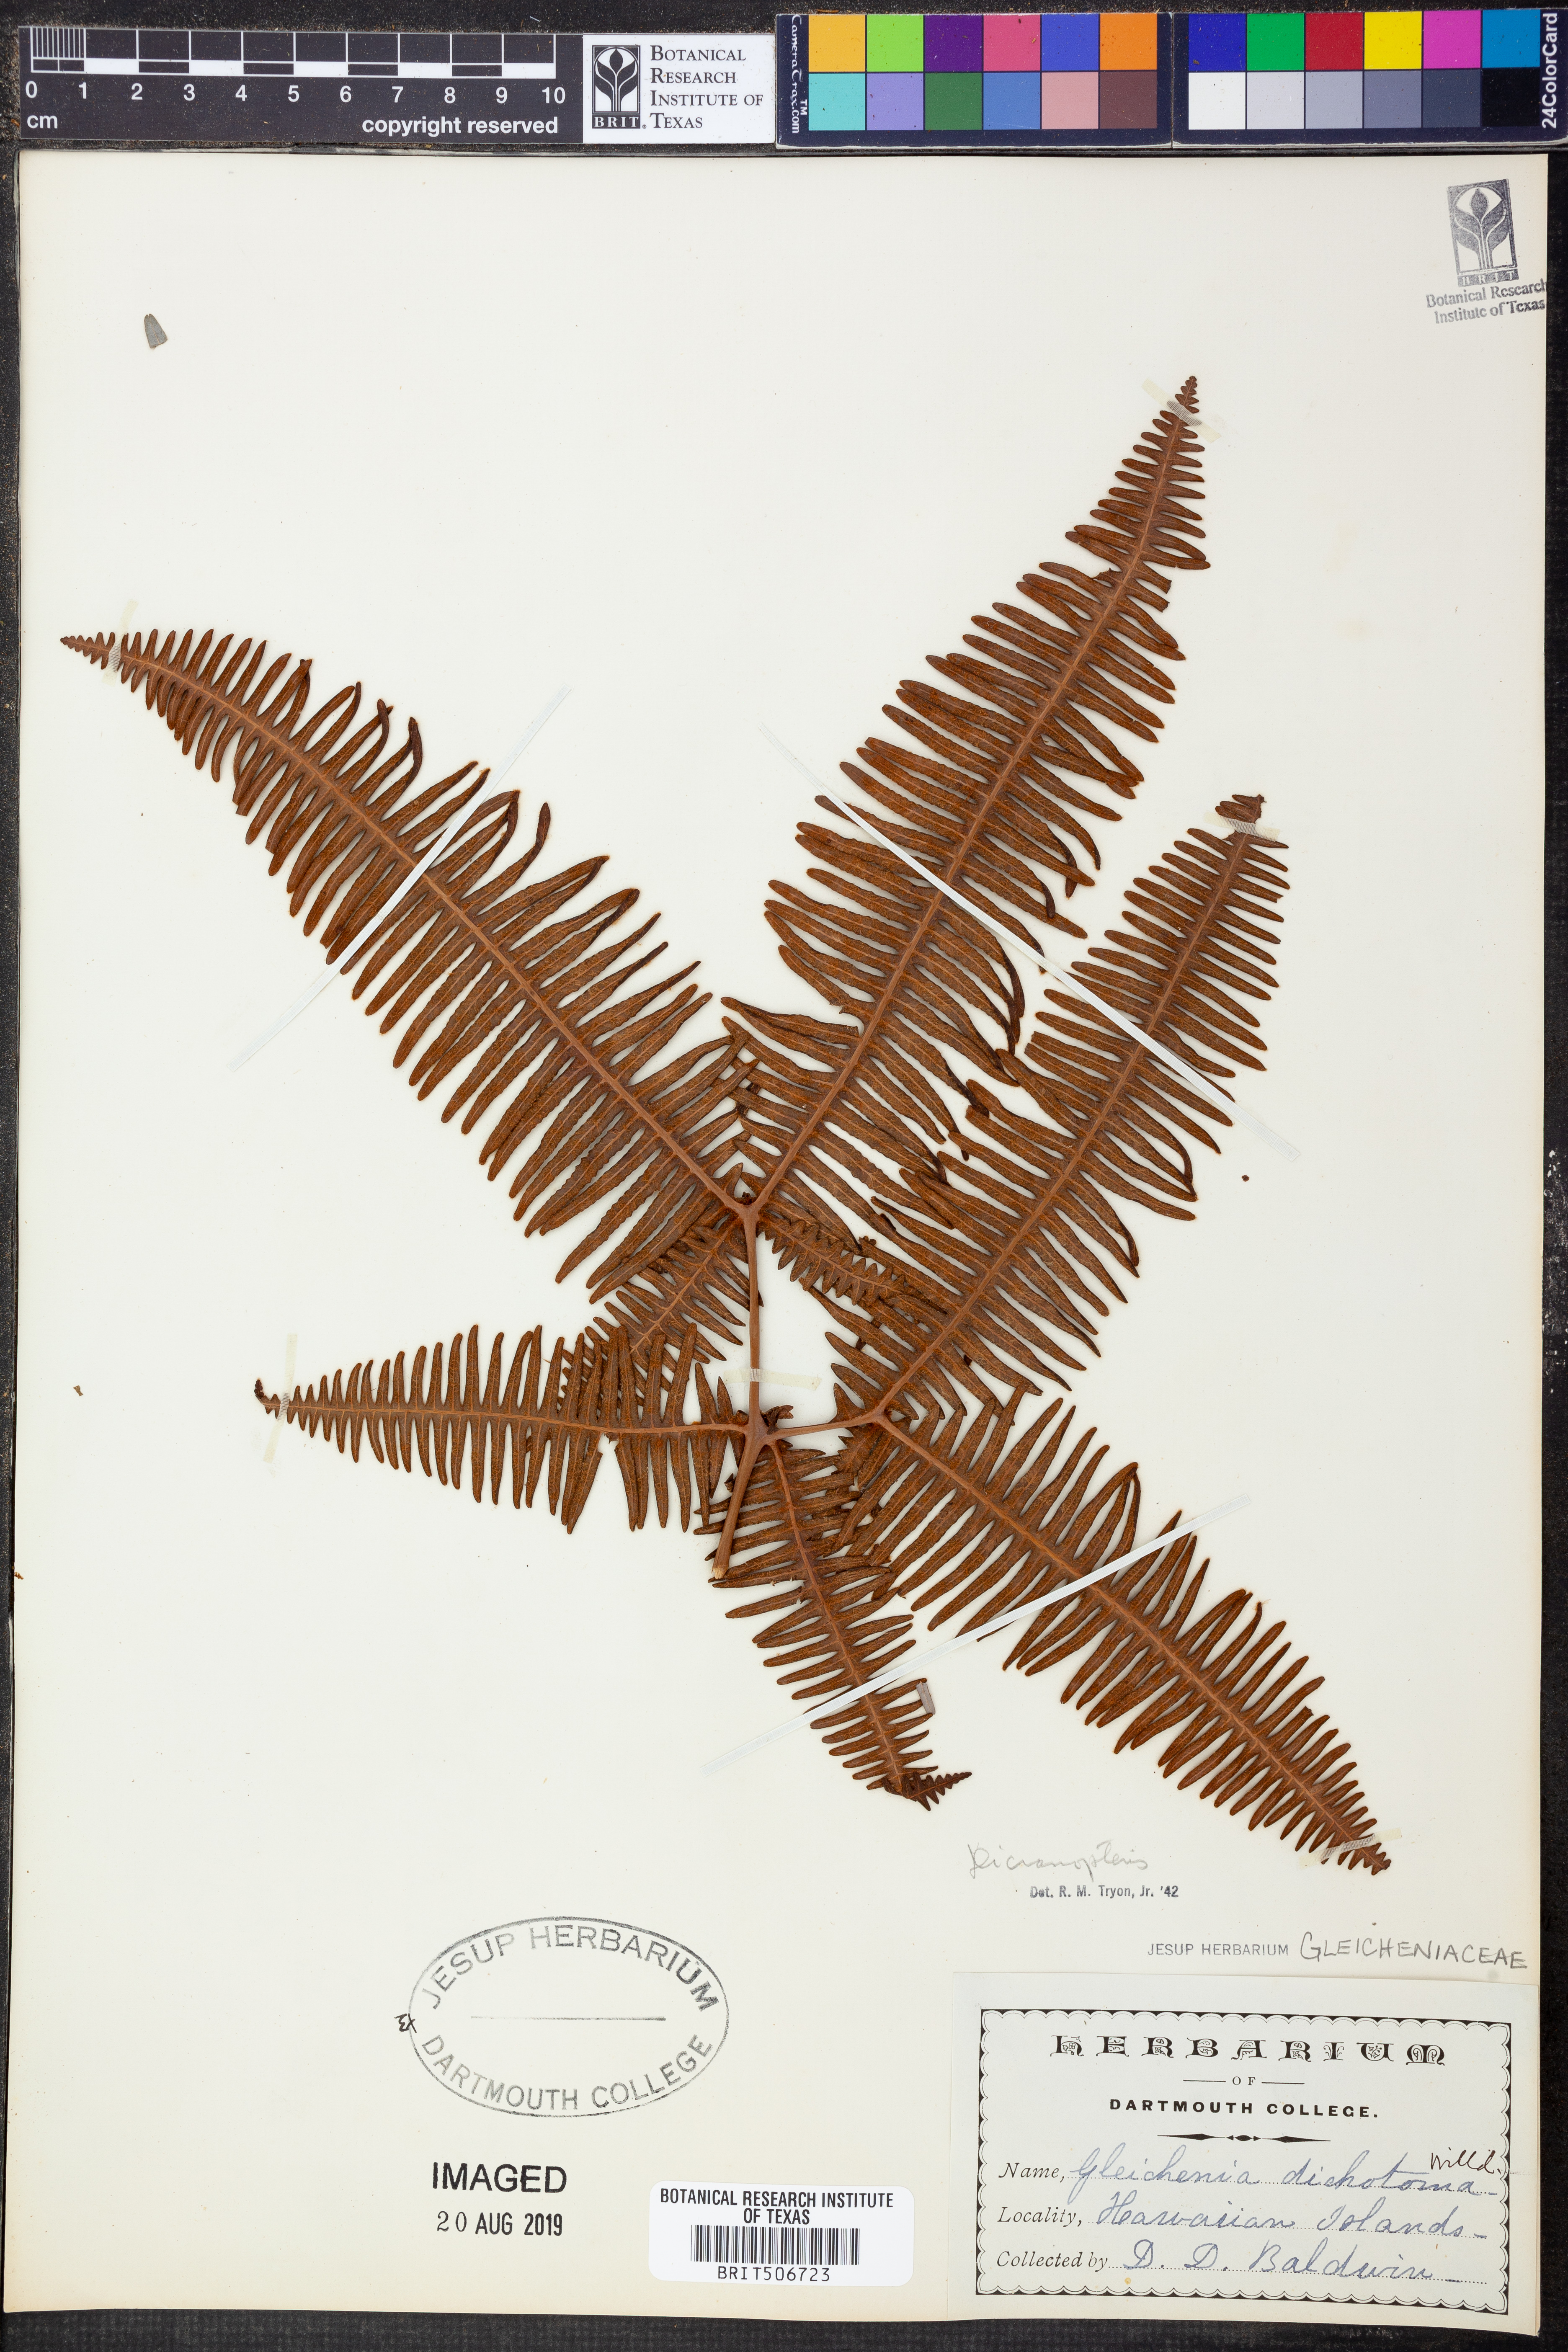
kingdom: Plantae
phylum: Tracheophyta
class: Polypodiopsida
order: Gleicheniales
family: Gleicheniaceae
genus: Dicranopteris
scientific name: Dicranopteris
